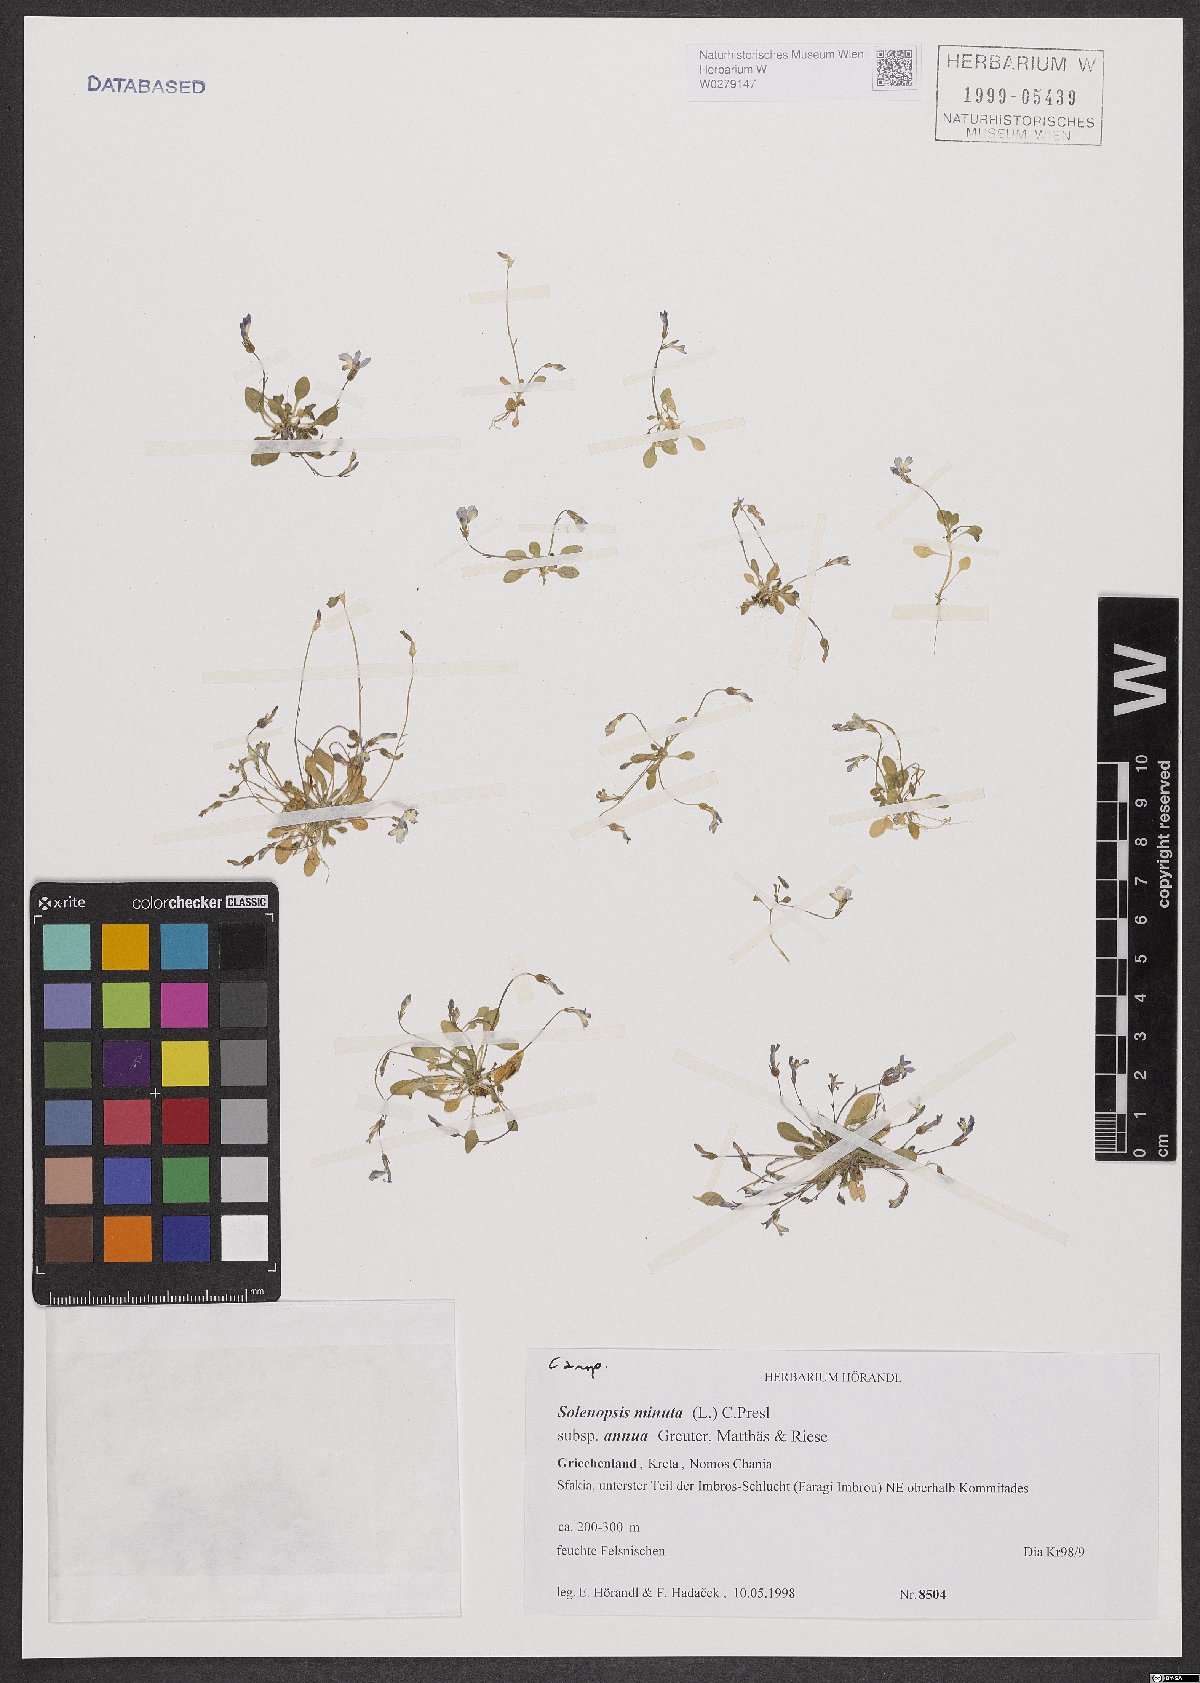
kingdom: Plantae
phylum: Tracheophyta
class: Magnoliopsida
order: Asterales
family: Campanulaceae
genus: Solenopsis
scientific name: Solenopsis annua
